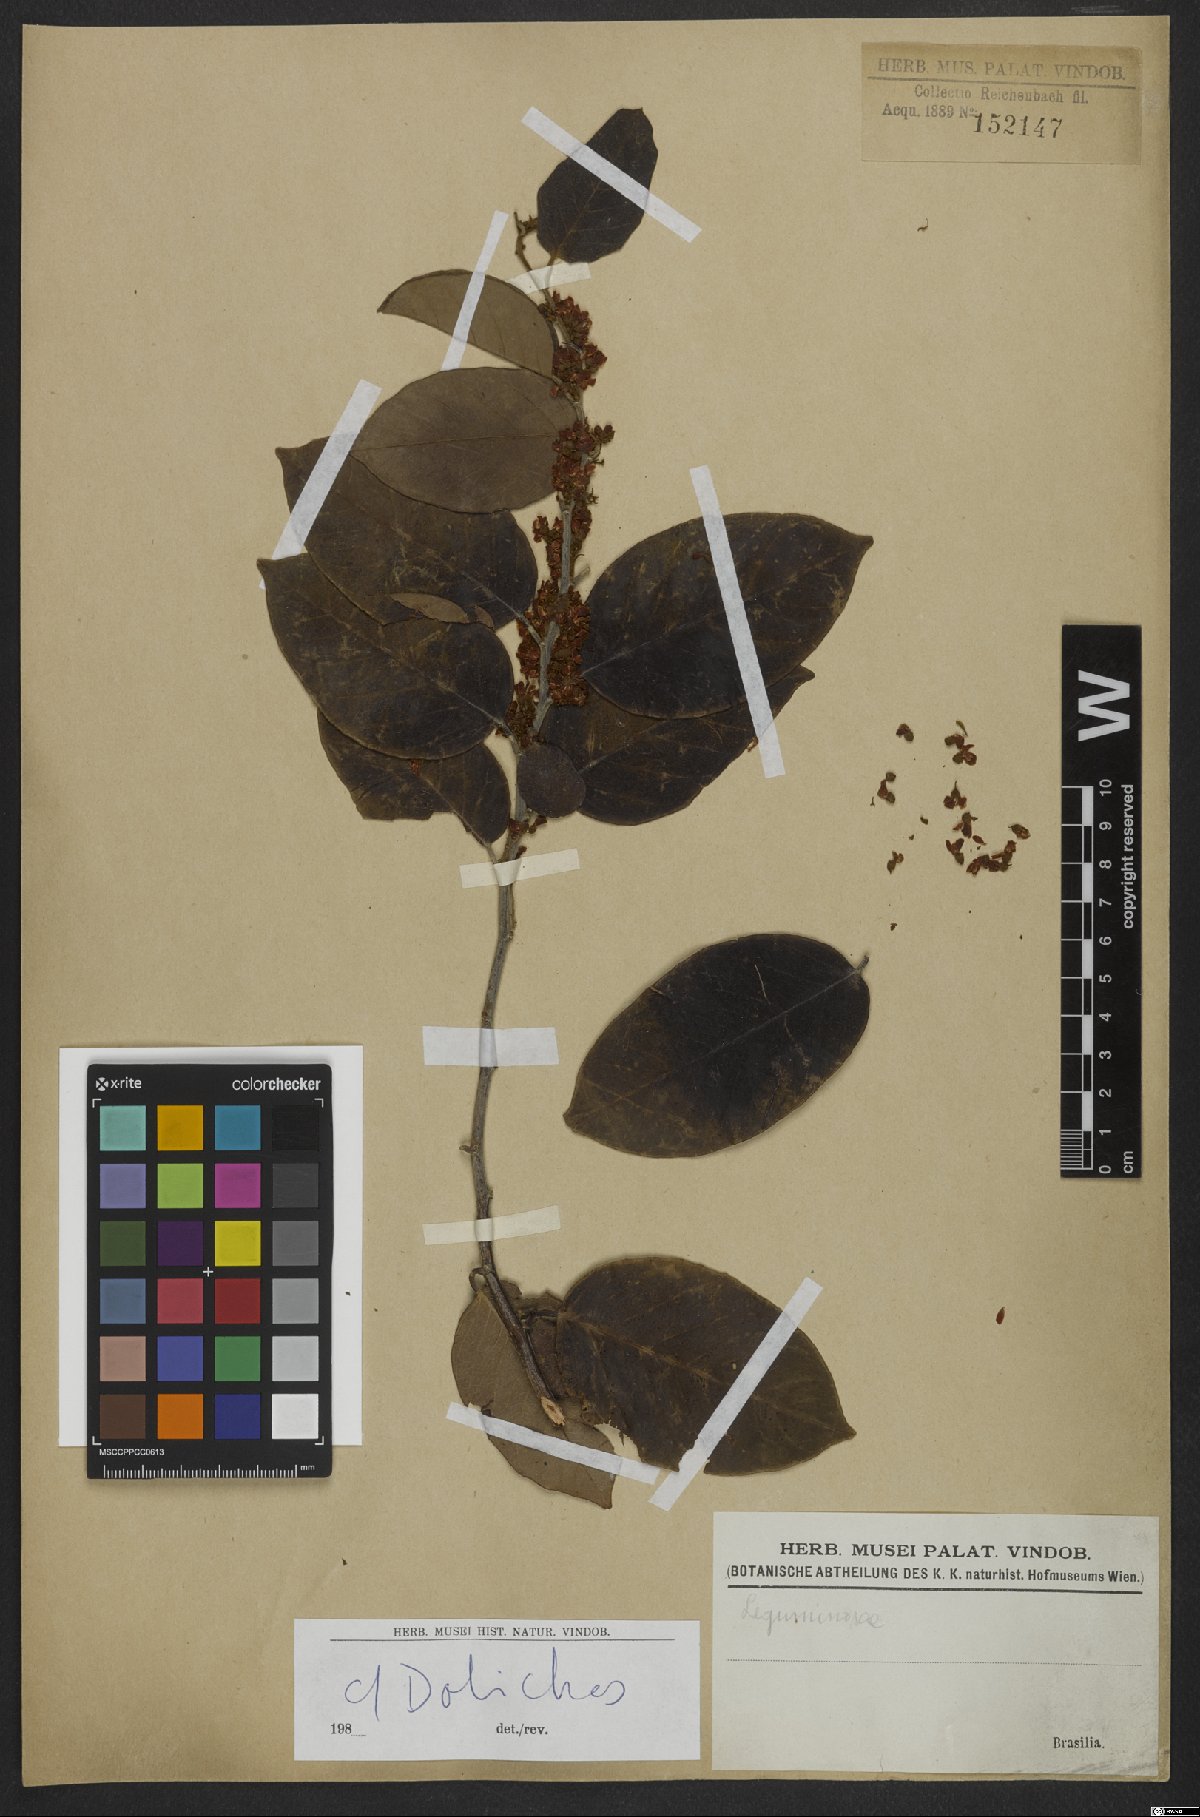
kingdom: Plantae
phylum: Tracheophyta
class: Magnoliopsida
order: Fabales
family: Fabaceae
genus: Dolichos
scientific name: Dolichos
